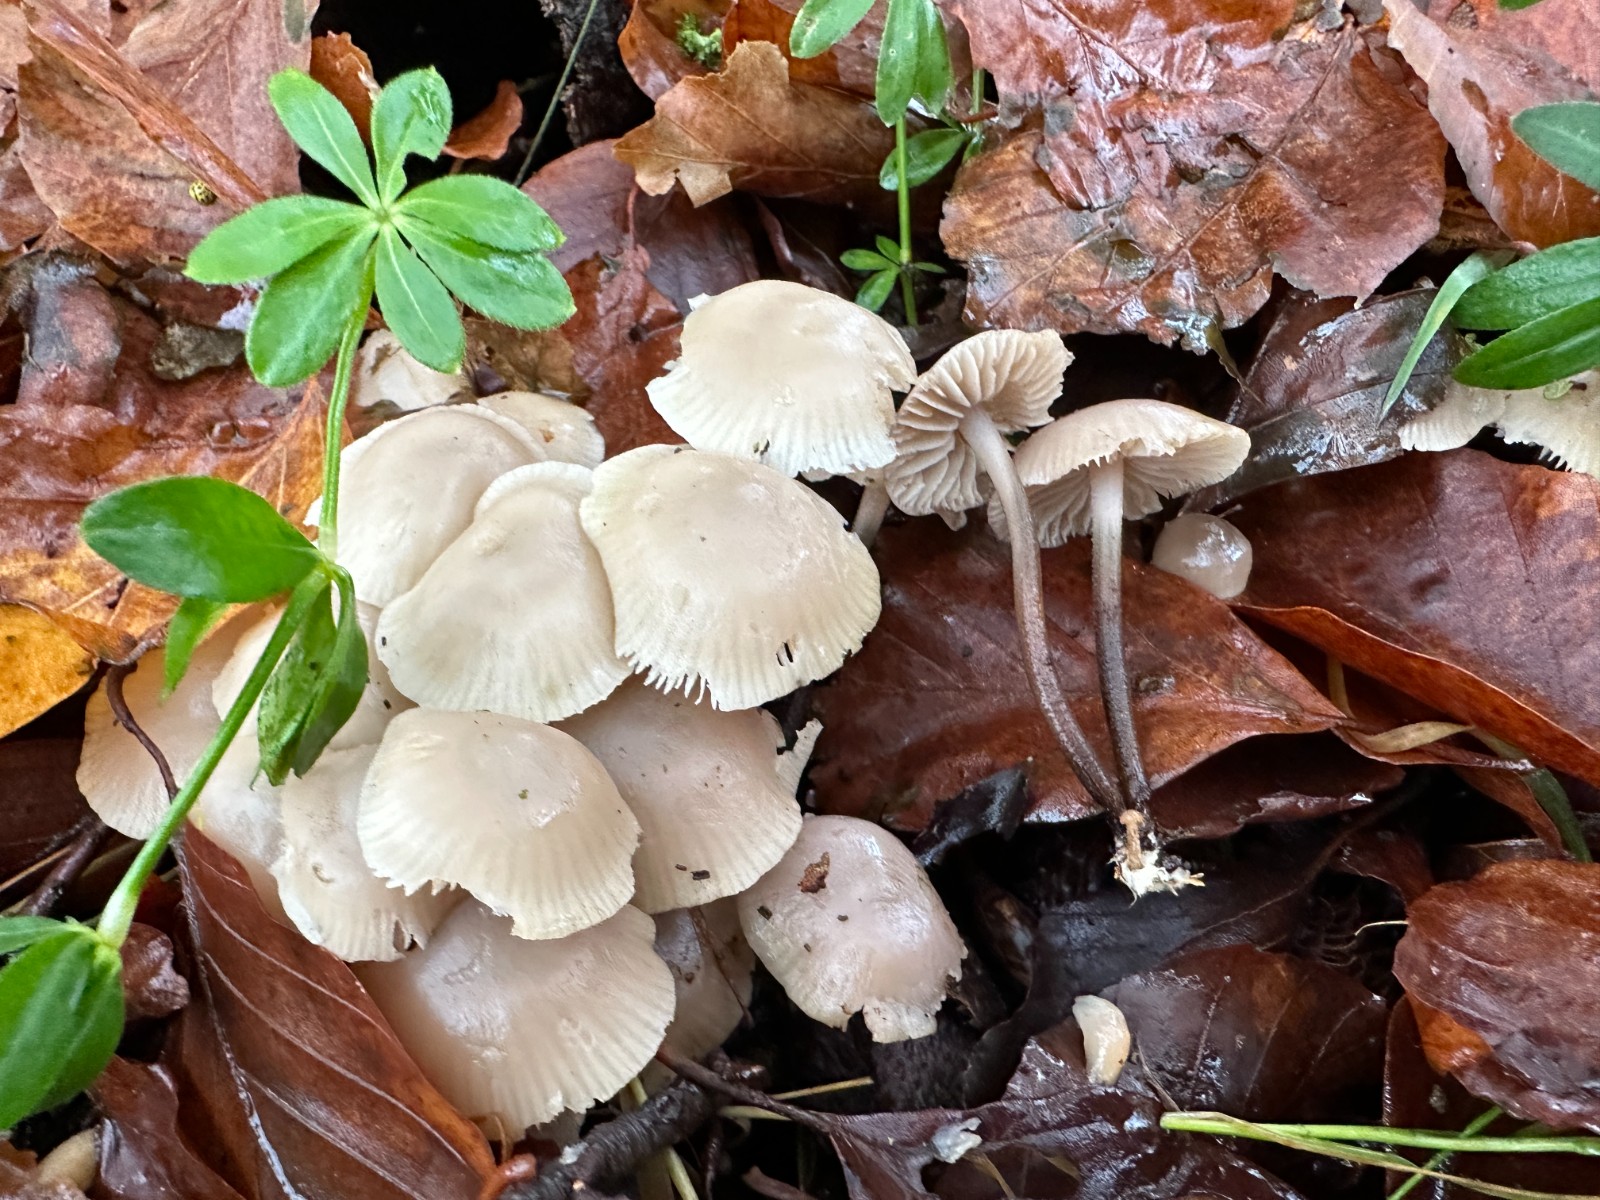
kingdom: Fungi
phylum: Basidiomycota
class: Agaricomycetes
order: Agaricales
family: Marasmiaceae
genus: Marasmius
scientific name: Marasmius wynneae
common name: hvælvet bruskhat
